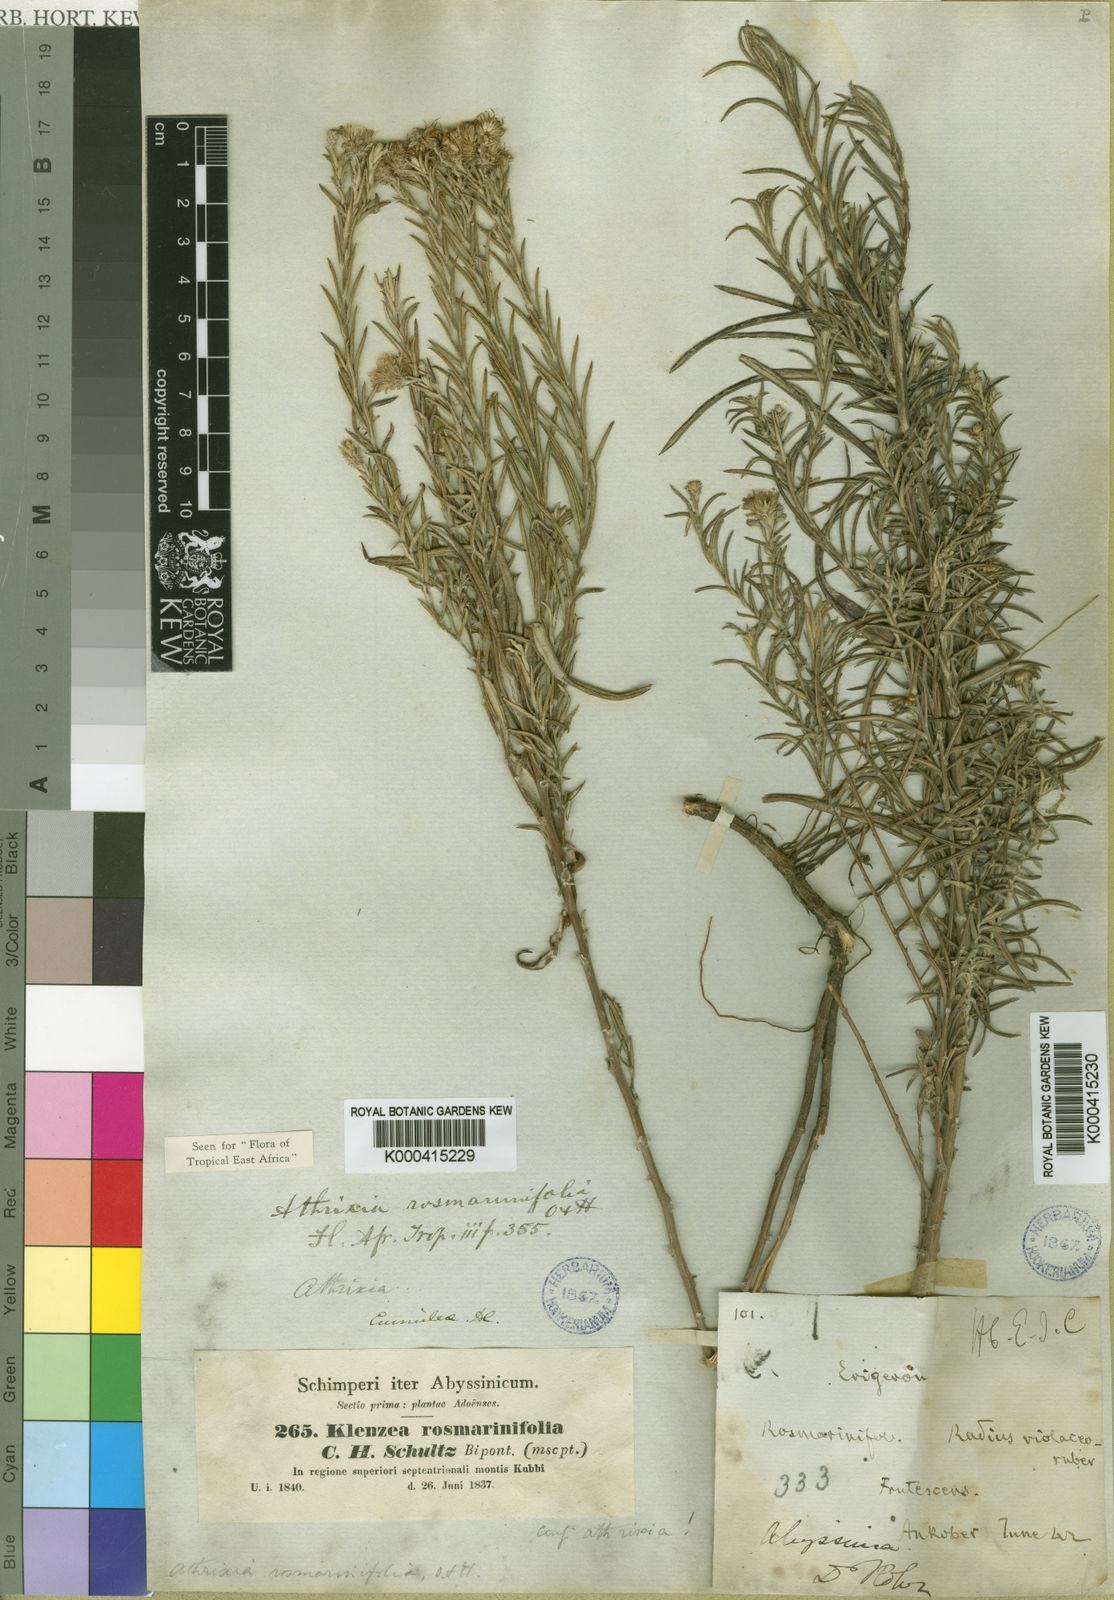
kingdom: Plantae
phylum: Tracheophyta
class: Magnoliopsida
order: Asterales
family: Asteraceae
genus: Athrixia
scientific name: Athrixia rosmarinifolia
